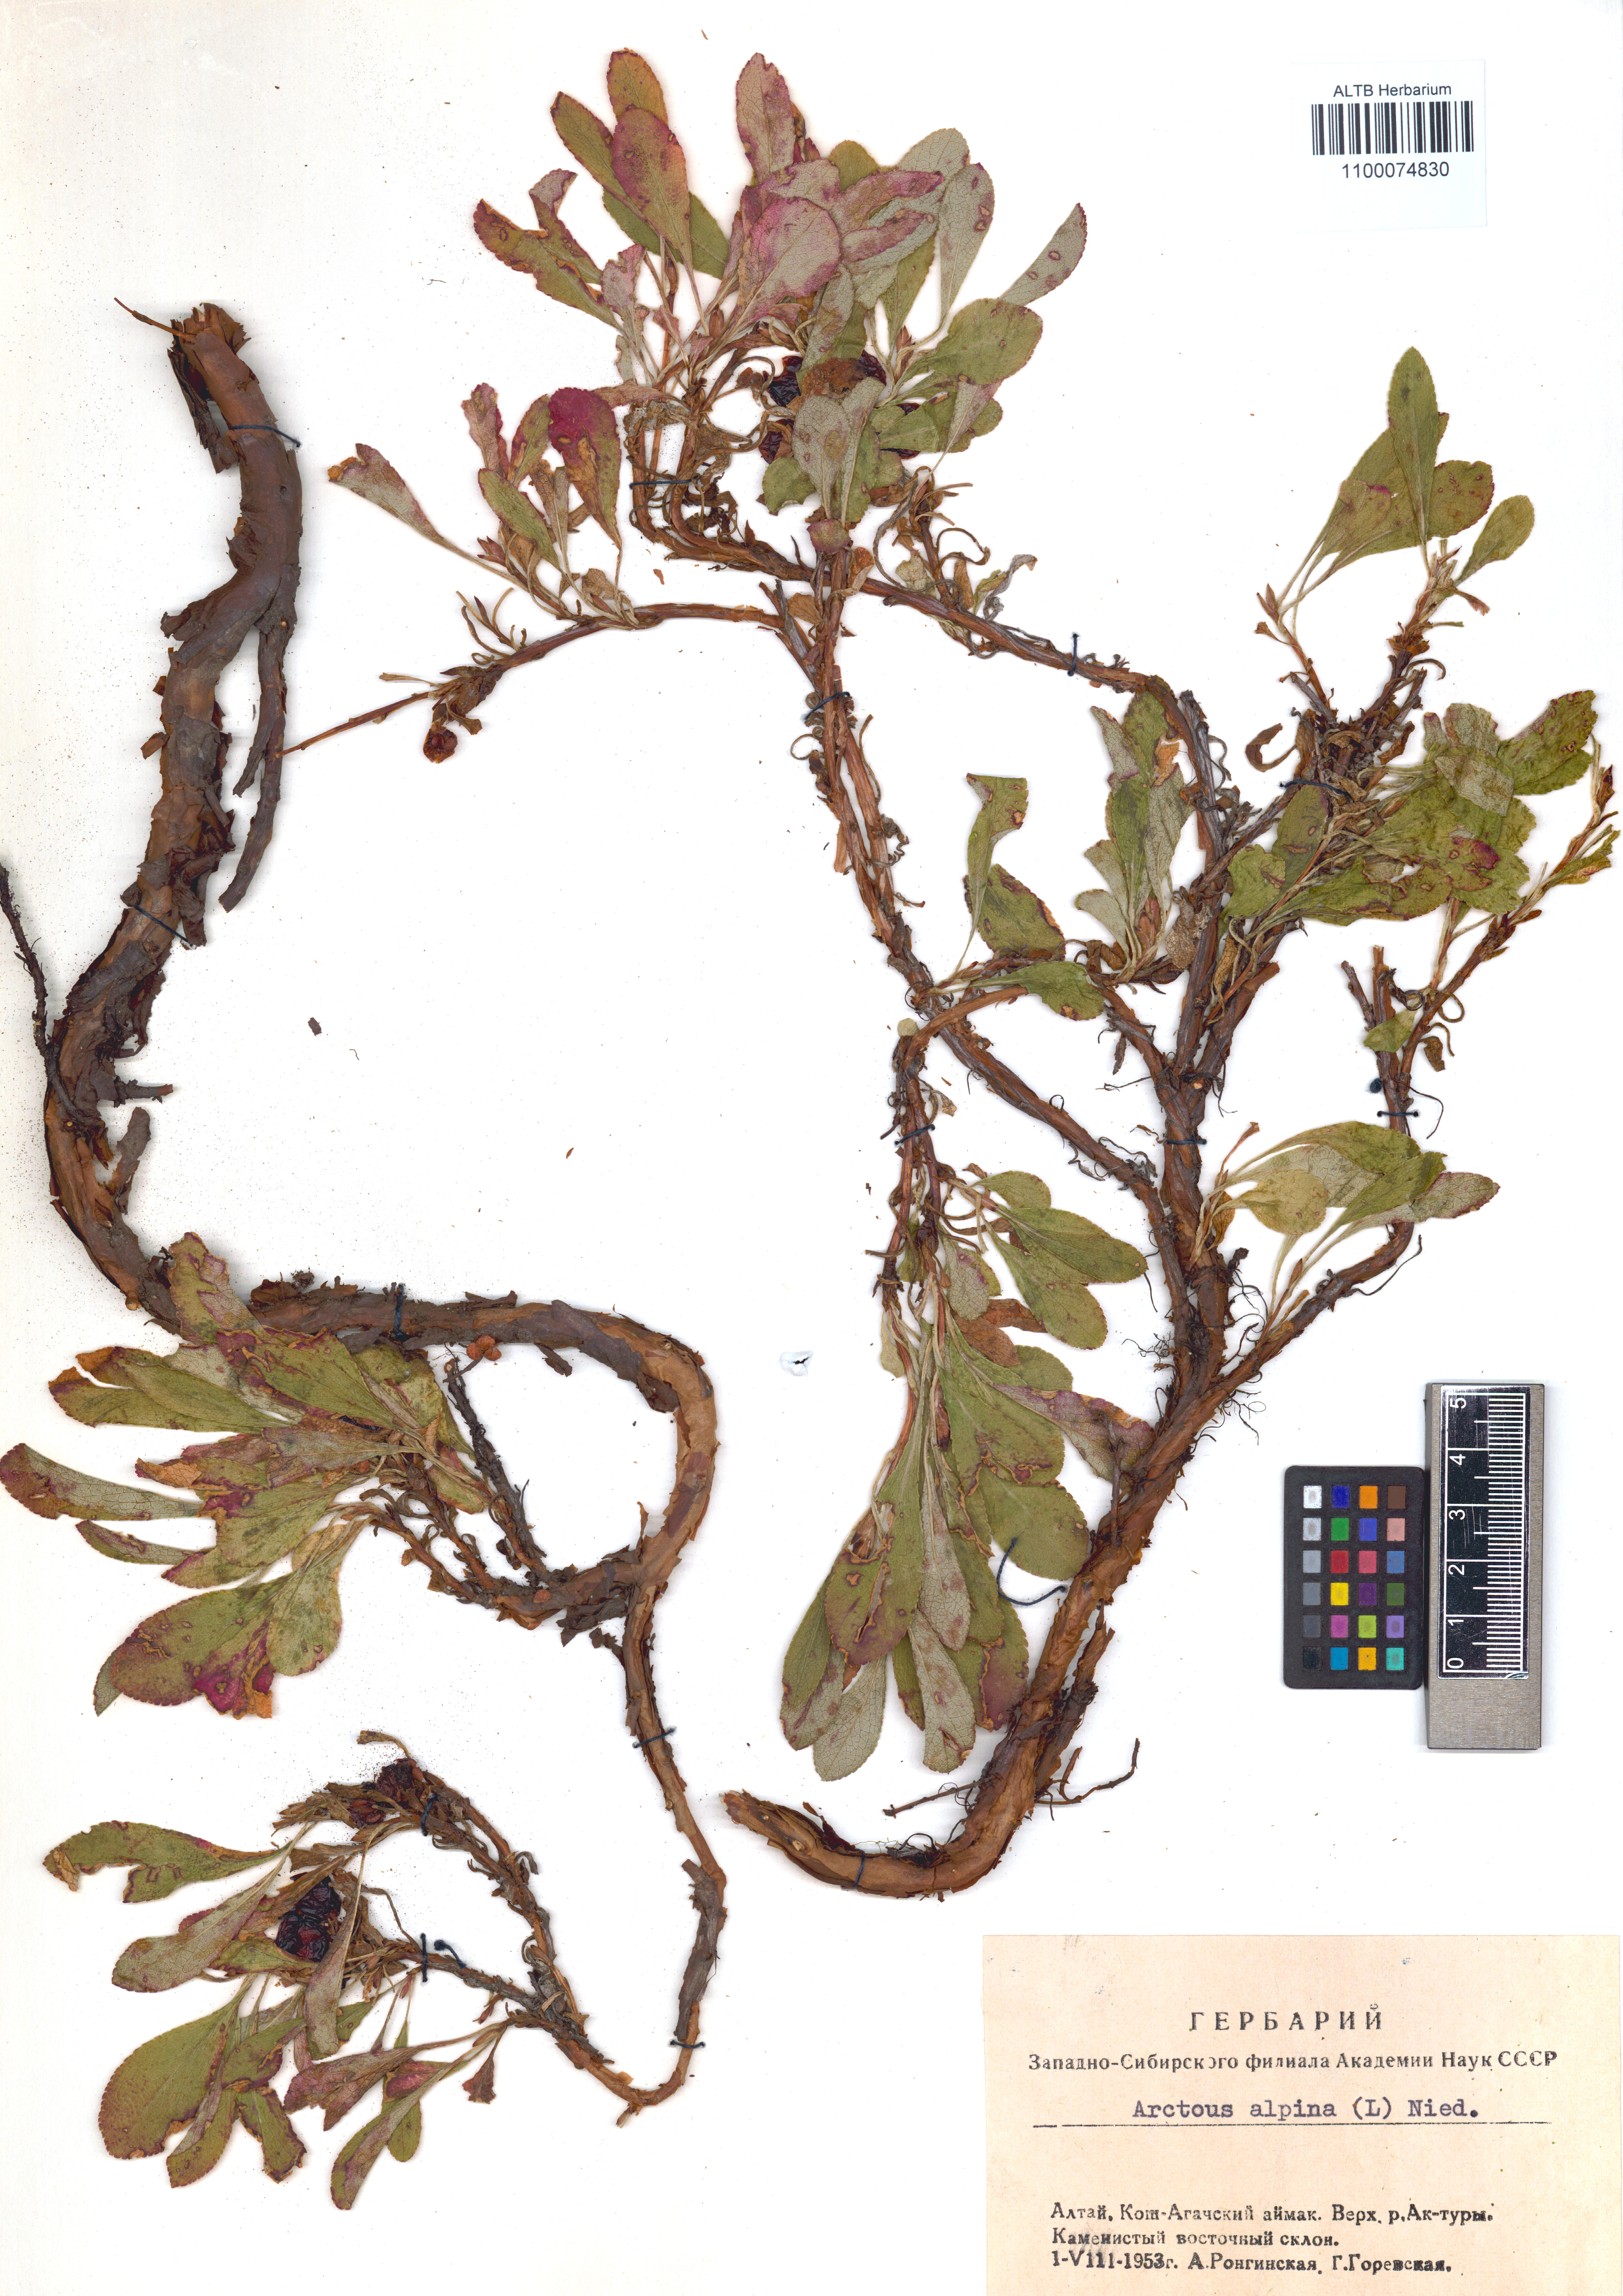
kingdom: Plantae
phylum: Tracheophyta
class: Magnoliopsida
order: Ericales
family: Ericaceae
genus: Arctostaphylos
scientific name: Arctostaphylos alpinus
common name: Alpine bearberry
